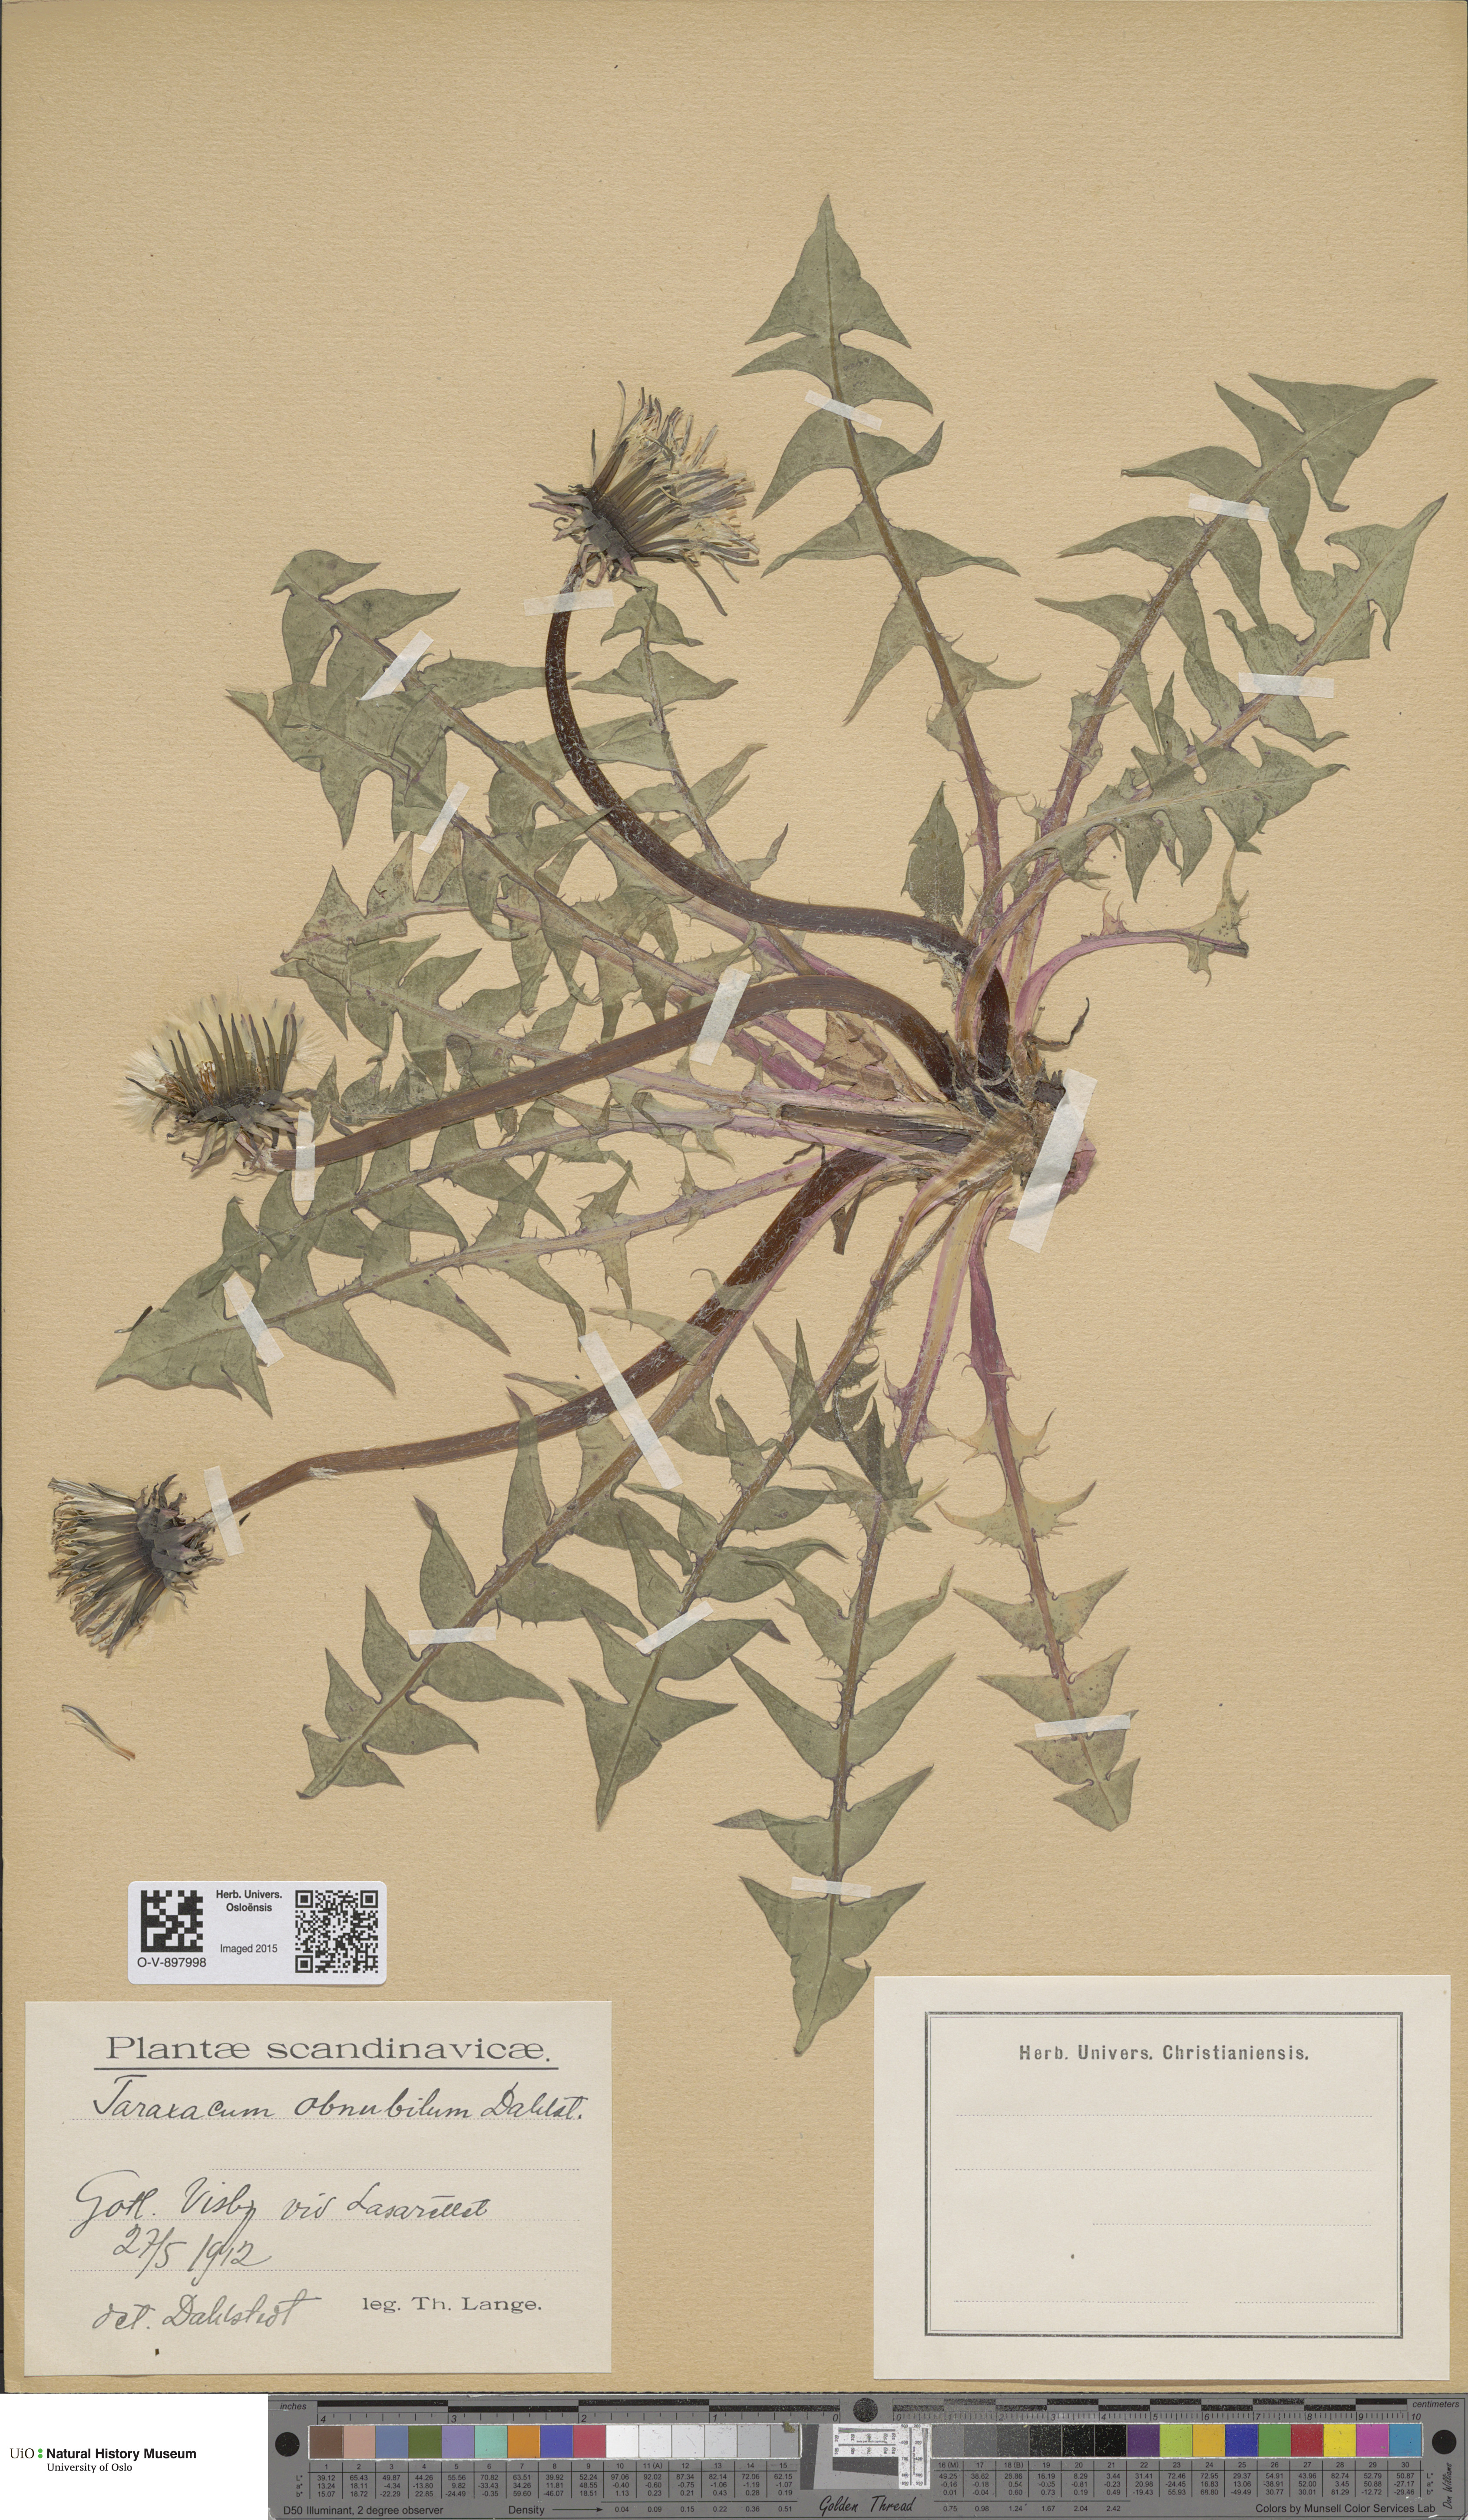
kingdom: Plantae
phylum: Tracheophyta
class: Magnoliopsida
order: Asterales
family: Asteraceae
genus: Taraxacum
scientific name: Taraxacum obnubilum
